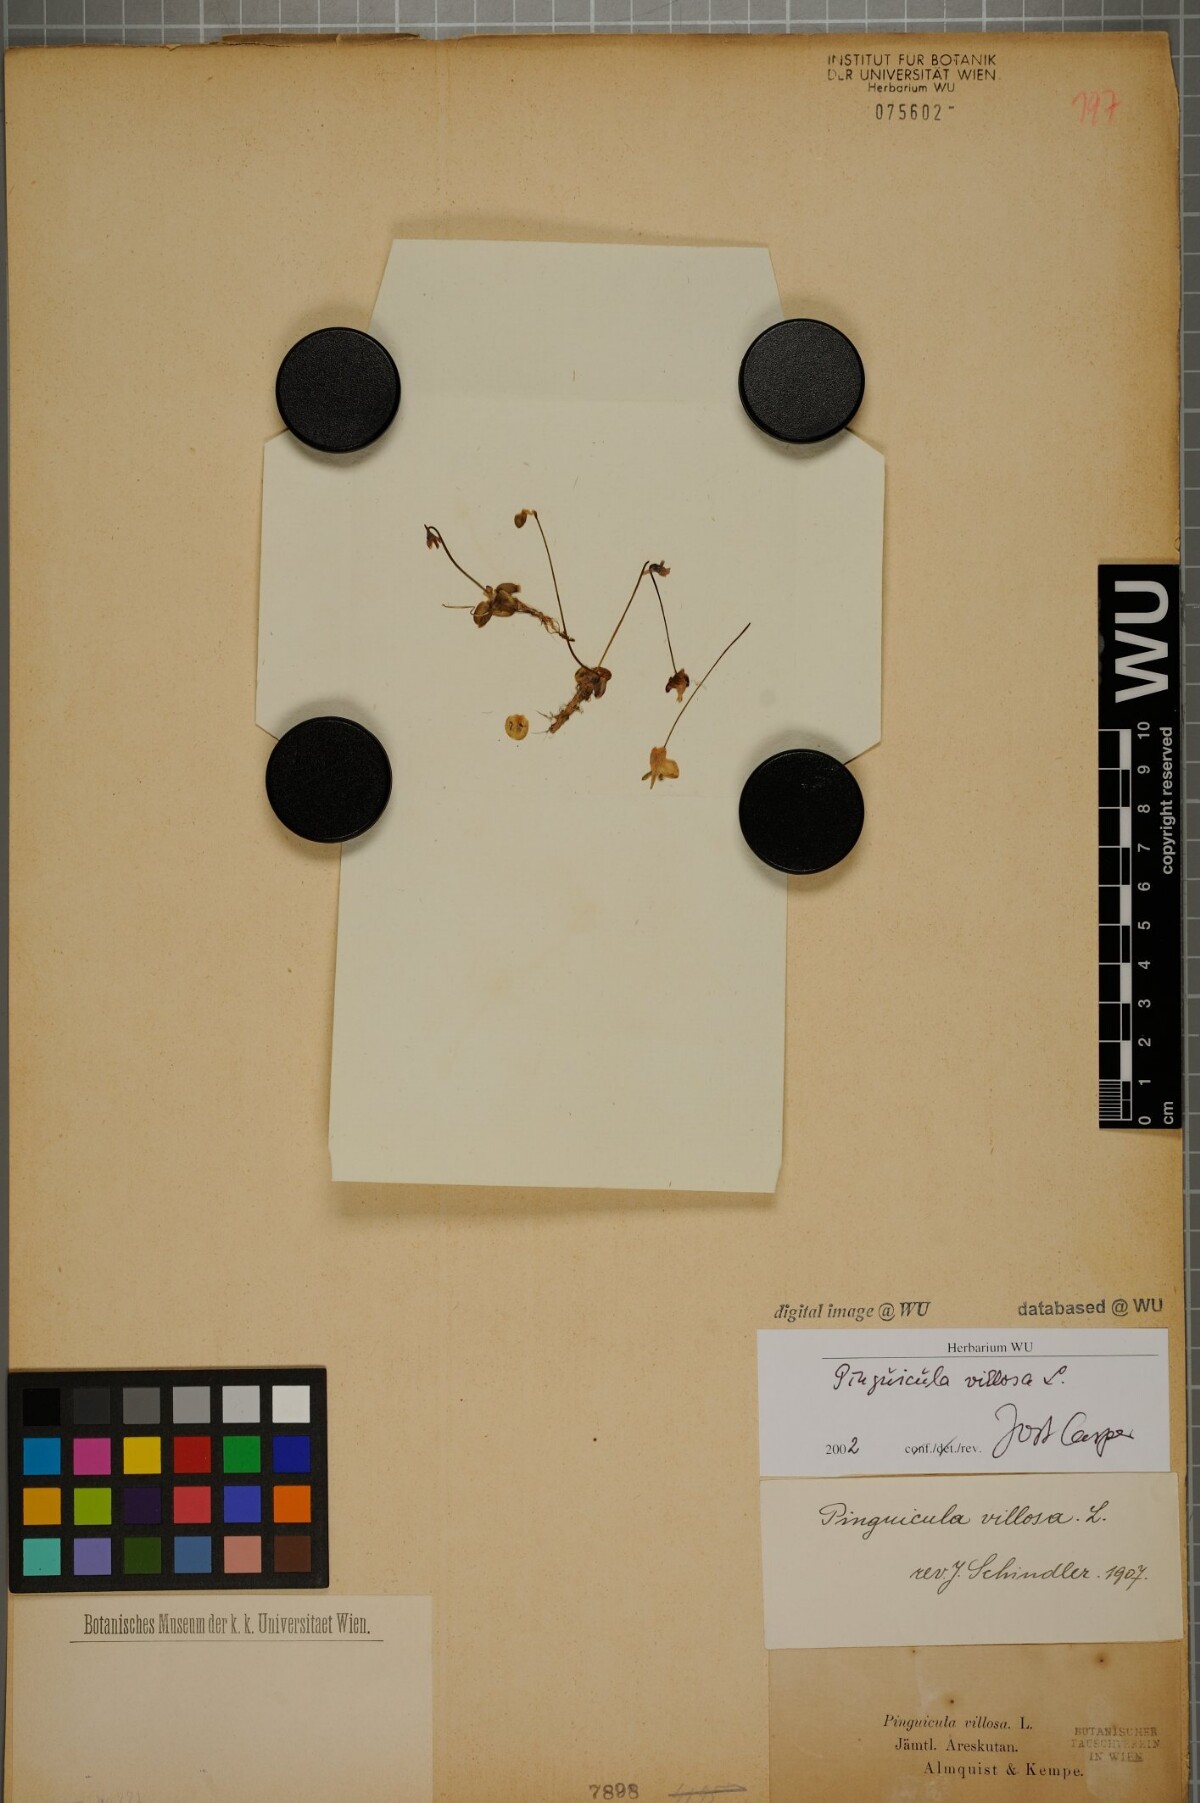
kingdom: Plantae
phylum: Tracheophyta
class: Magnoliopsida
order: Lamiales
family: Lentibulariaceae
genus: Pinguicula
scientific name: Pinguicula villosa
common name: Hairy butterwort
